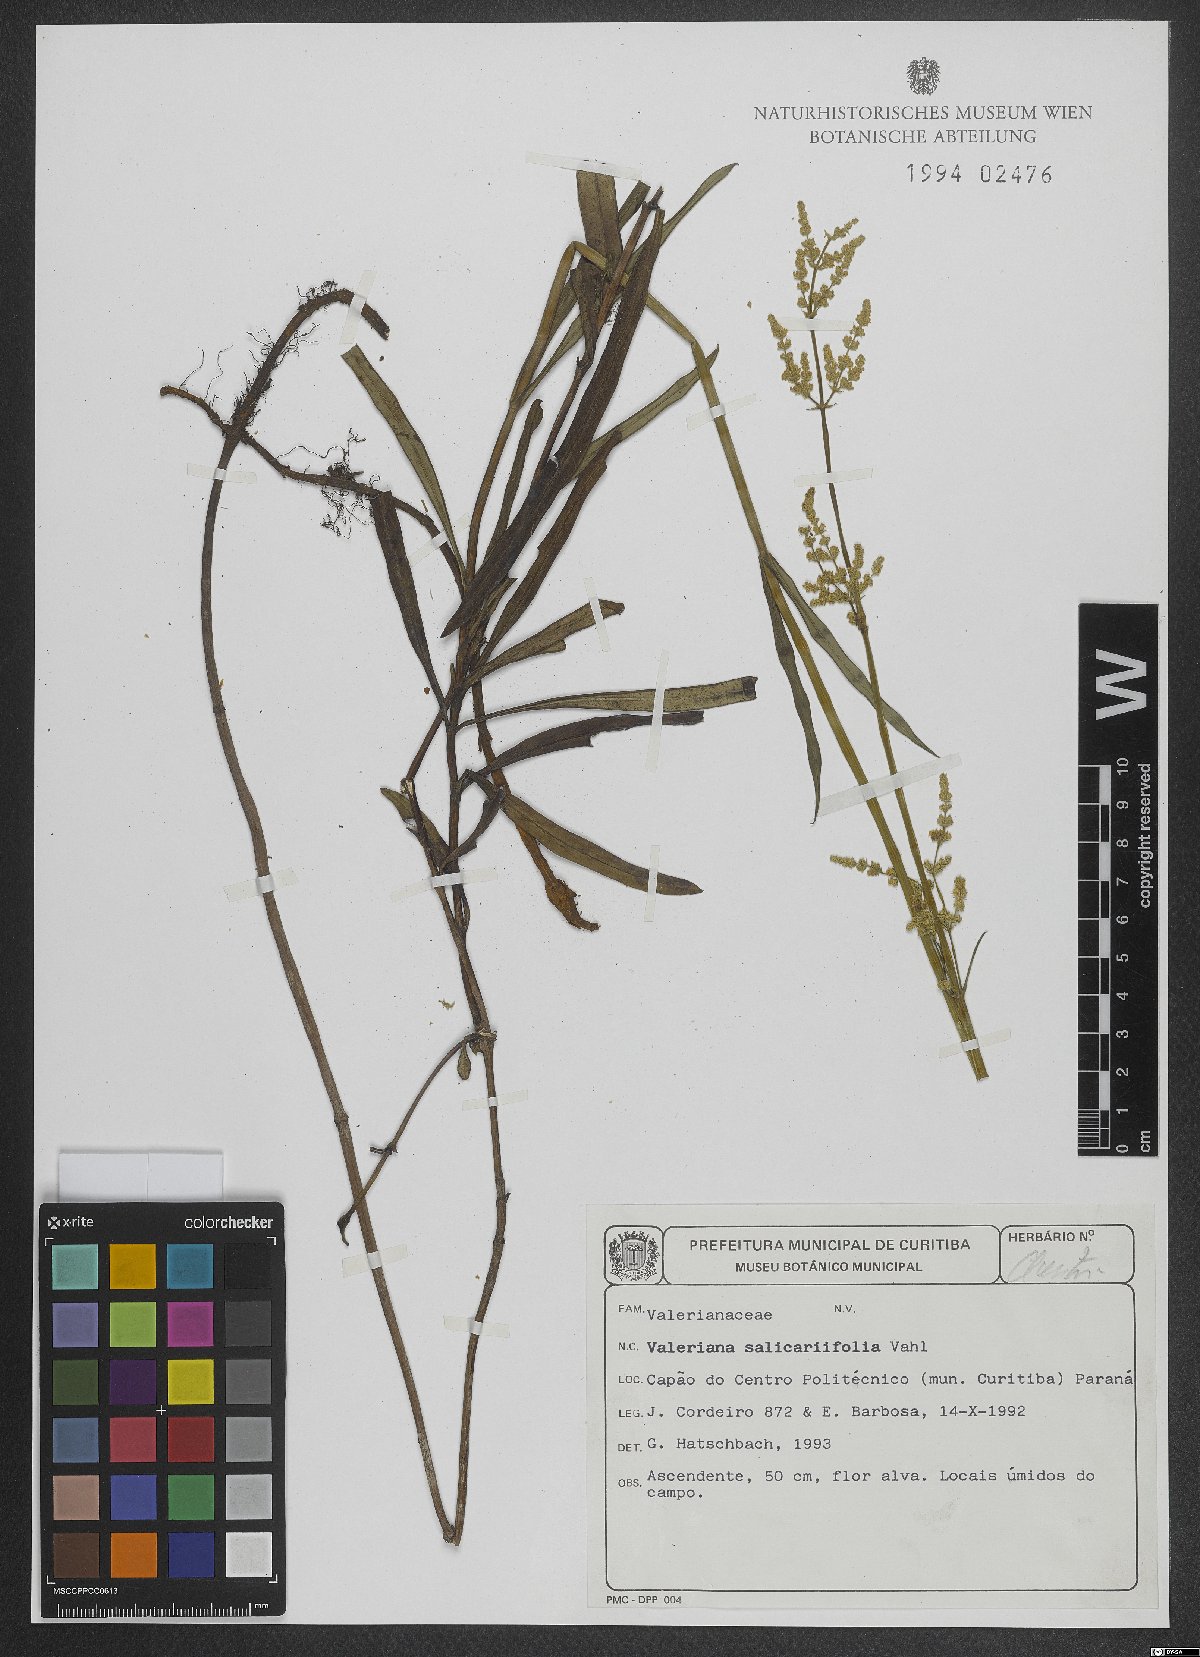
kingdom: Plantae
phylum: Tracheophyta
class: Magnoliopsida
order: Dipsacales
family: Caprifoliaceae
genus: Valeriana
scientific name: Valeriana salicariifolia
